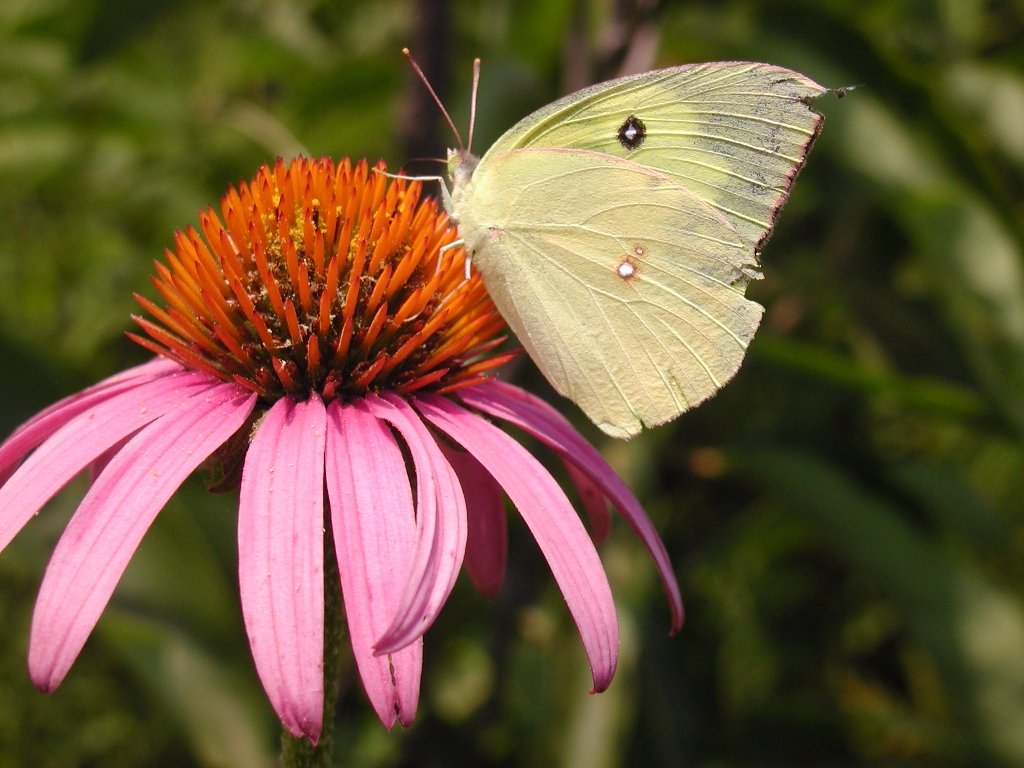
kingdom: Animalia
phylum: Arthropoda
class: Insecta
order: Lepidoptera
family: Pieridae
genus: Zerene
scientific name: Zerene cesonia
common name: Southern Dogface
